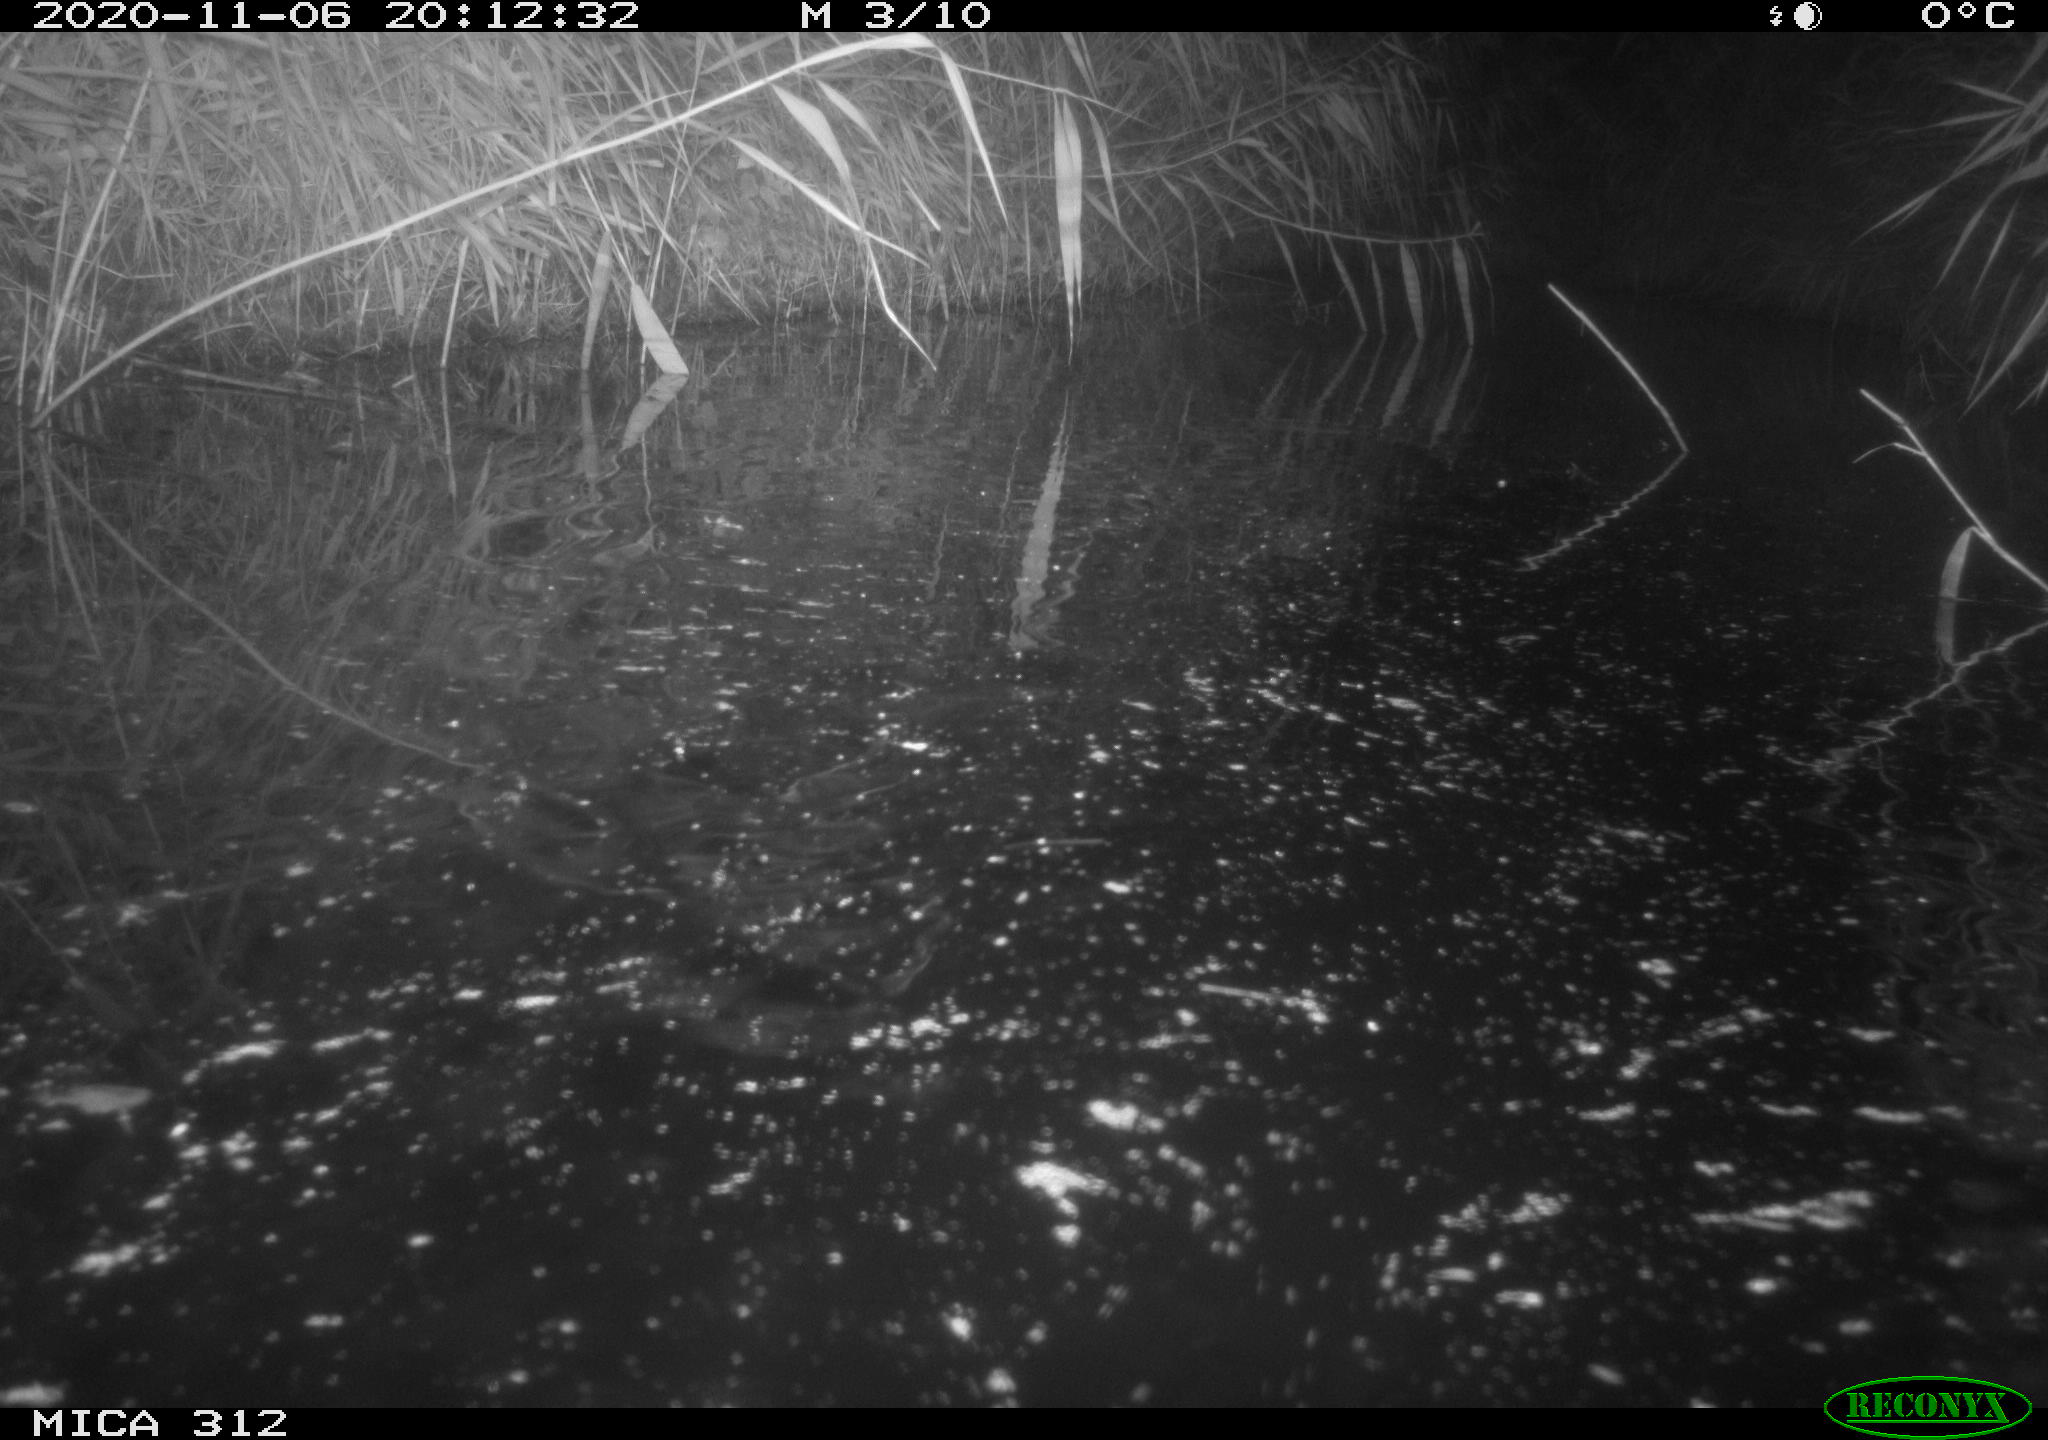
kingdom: Animalia
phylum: Chordata
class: Mammalia
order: Rodentia
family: Cricetidae
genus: Ondatra
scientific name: Ondatra zibethicus
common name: Muskrat
